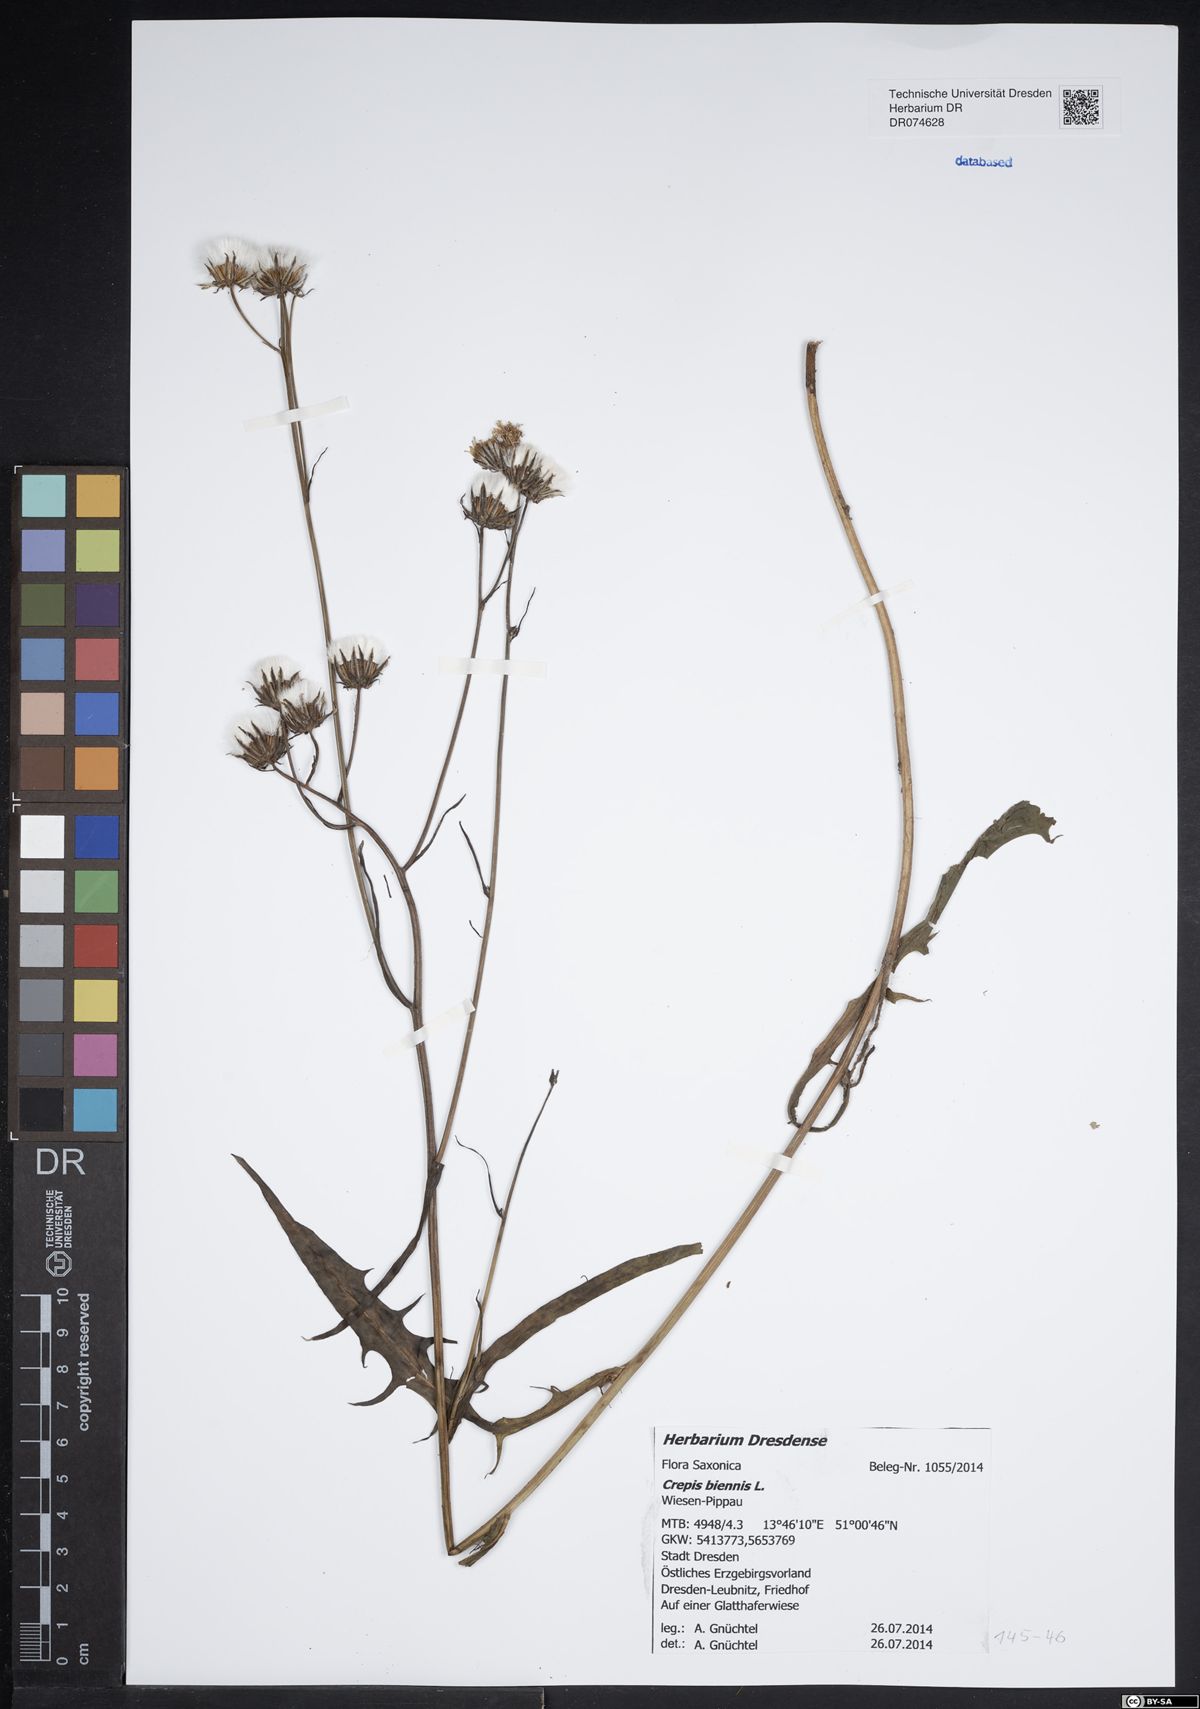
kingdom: Plantae
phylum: Tracheophyta
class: Magnoliopsida
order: Asterales
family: Asteraceae
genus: Crepis
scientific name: Crepis biennis
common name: Rough hawk's-beard
